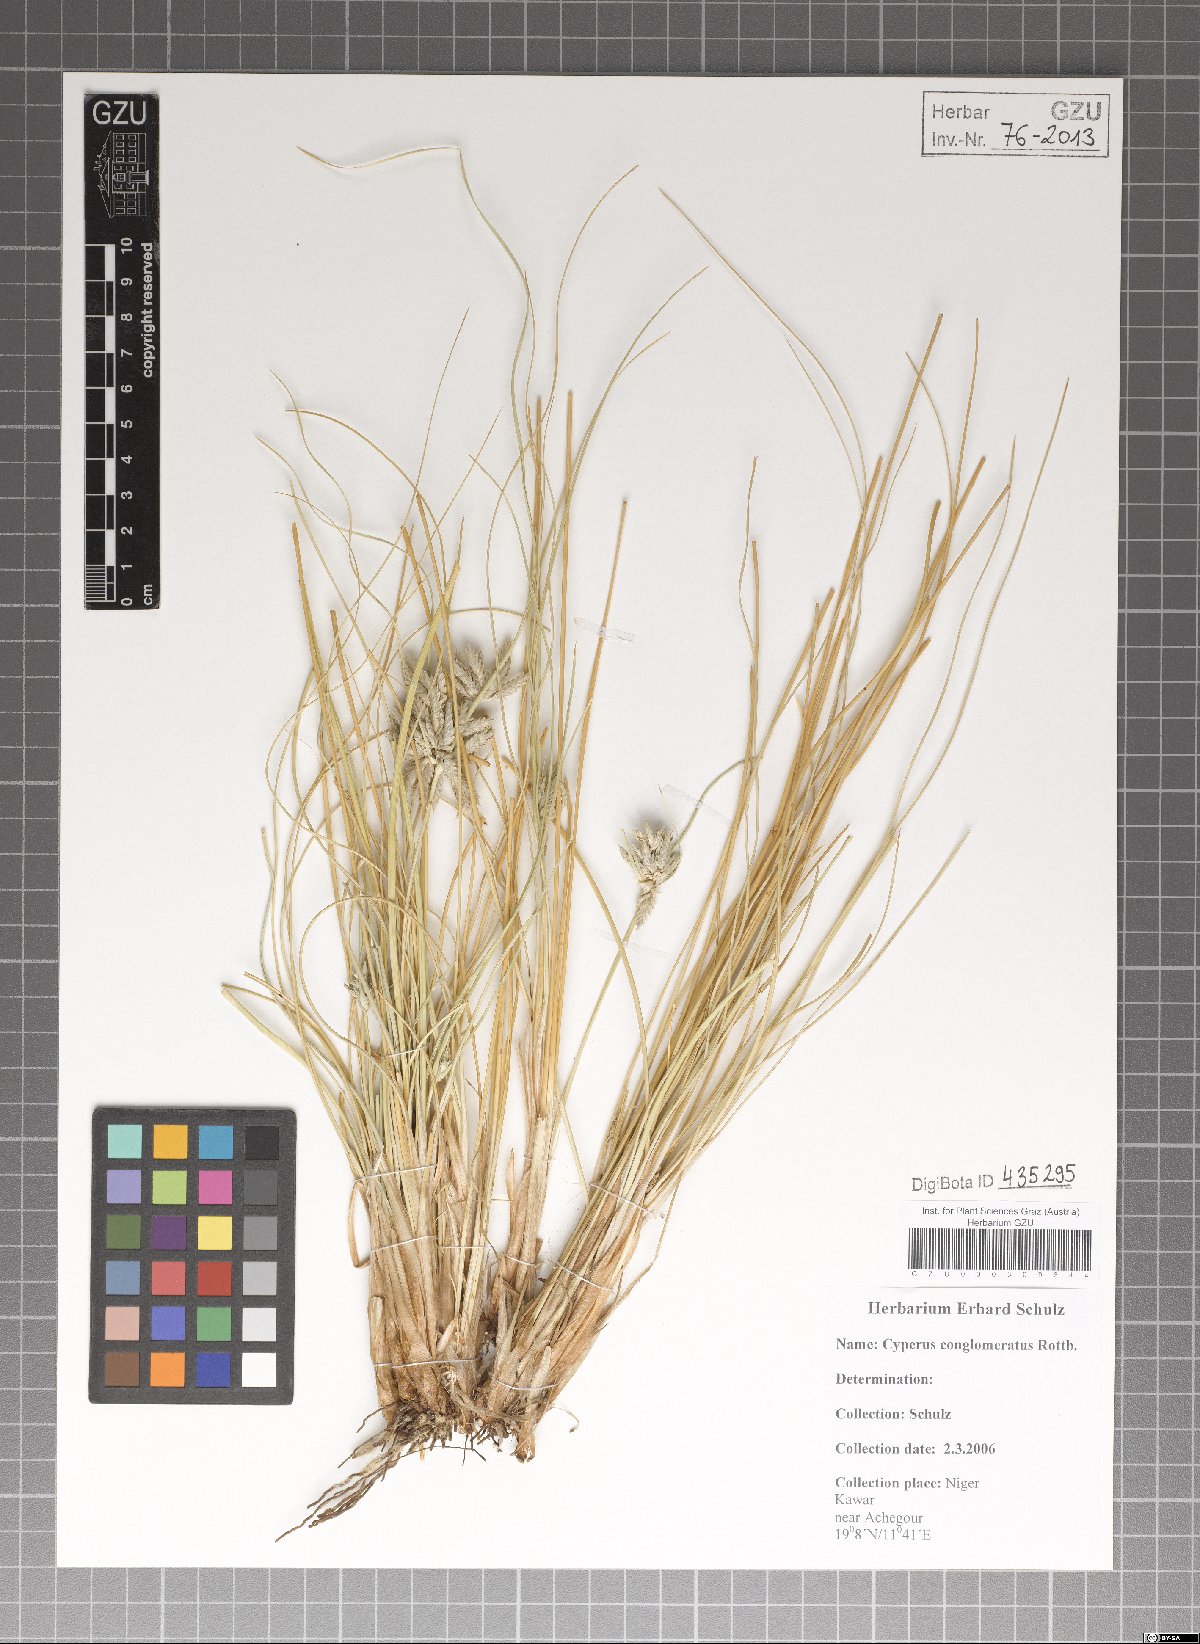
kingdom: Plantae
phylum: Tracheophyta
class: Liliopsida
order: Poales
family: Cyperaceae
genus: Cyperus
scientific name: Cyperus conglomeratus
